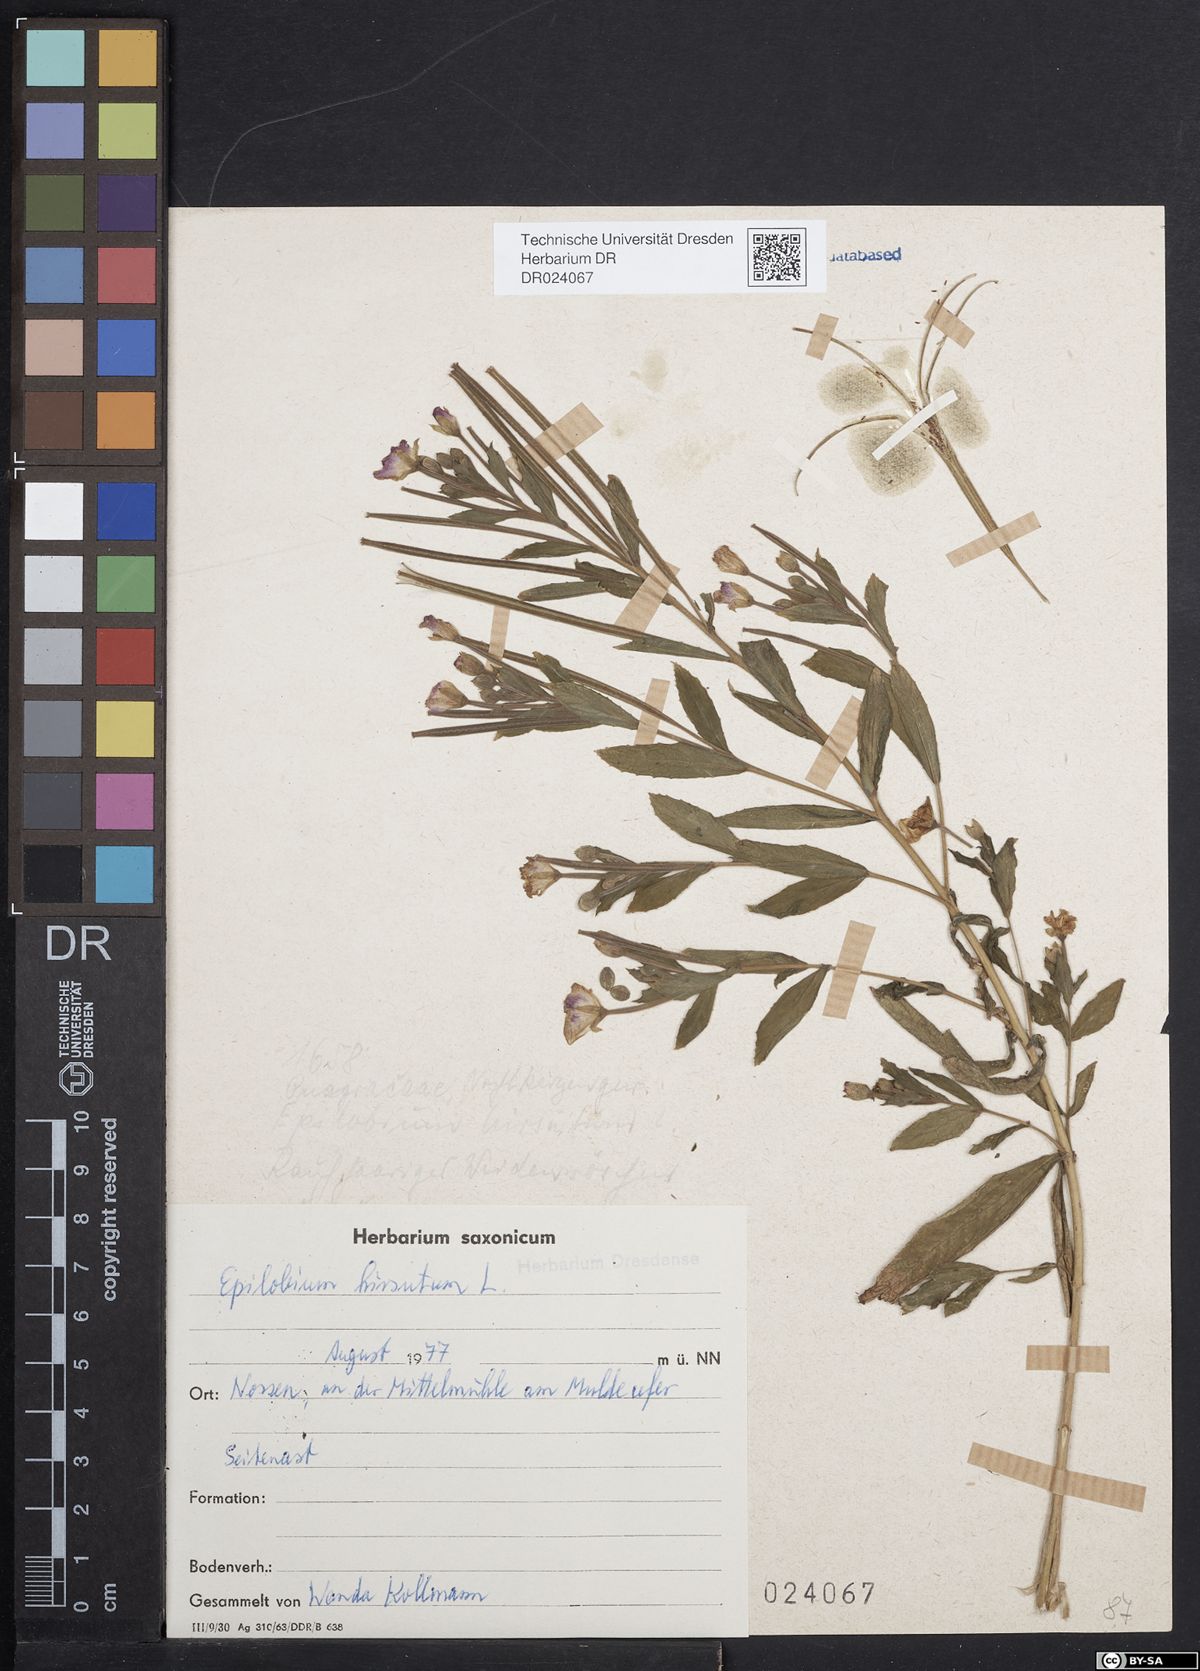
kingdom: Plantae
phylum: Tracheophyta
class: Magnoliopsida
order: Myrtales
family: Onagraceae
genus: Epilobium
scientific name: Epilobium hirsutum
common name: Great willowherb
